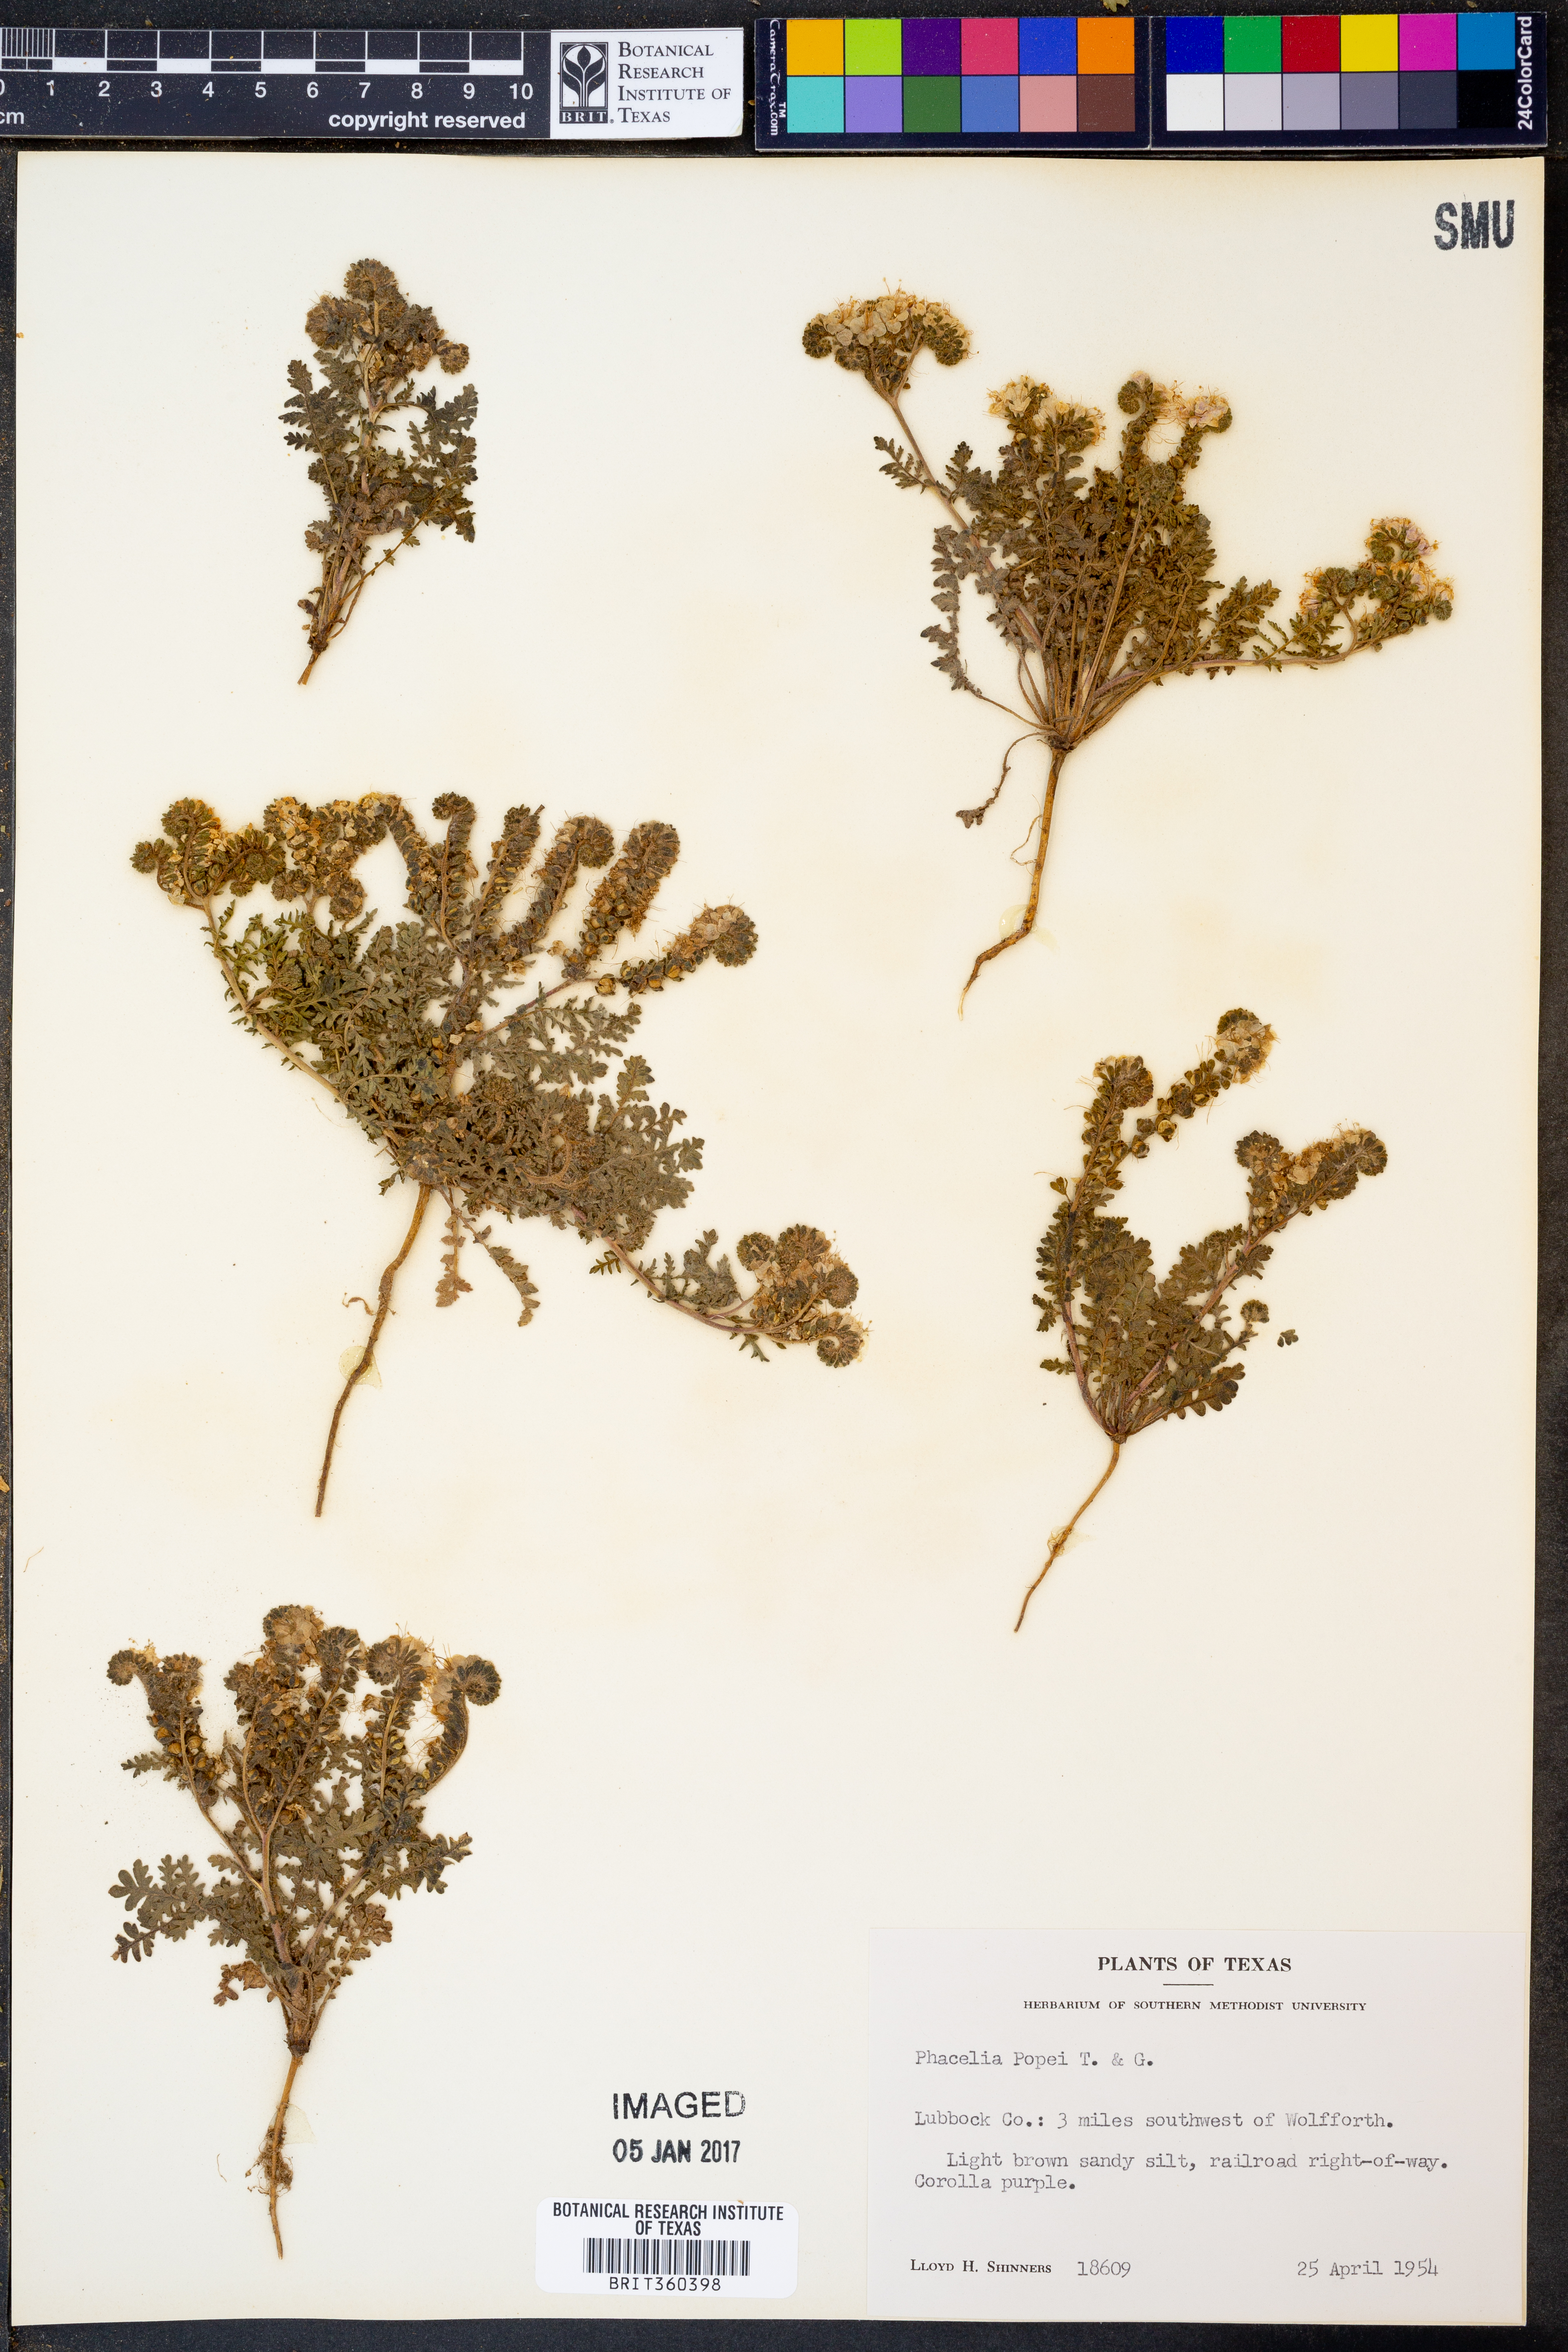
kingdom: Plantae
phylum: Tracheophyta
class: Magnoliopsida
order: Boraginales
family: Hydrophyllaceae
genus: Phacelia
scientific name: Phacelia popei
